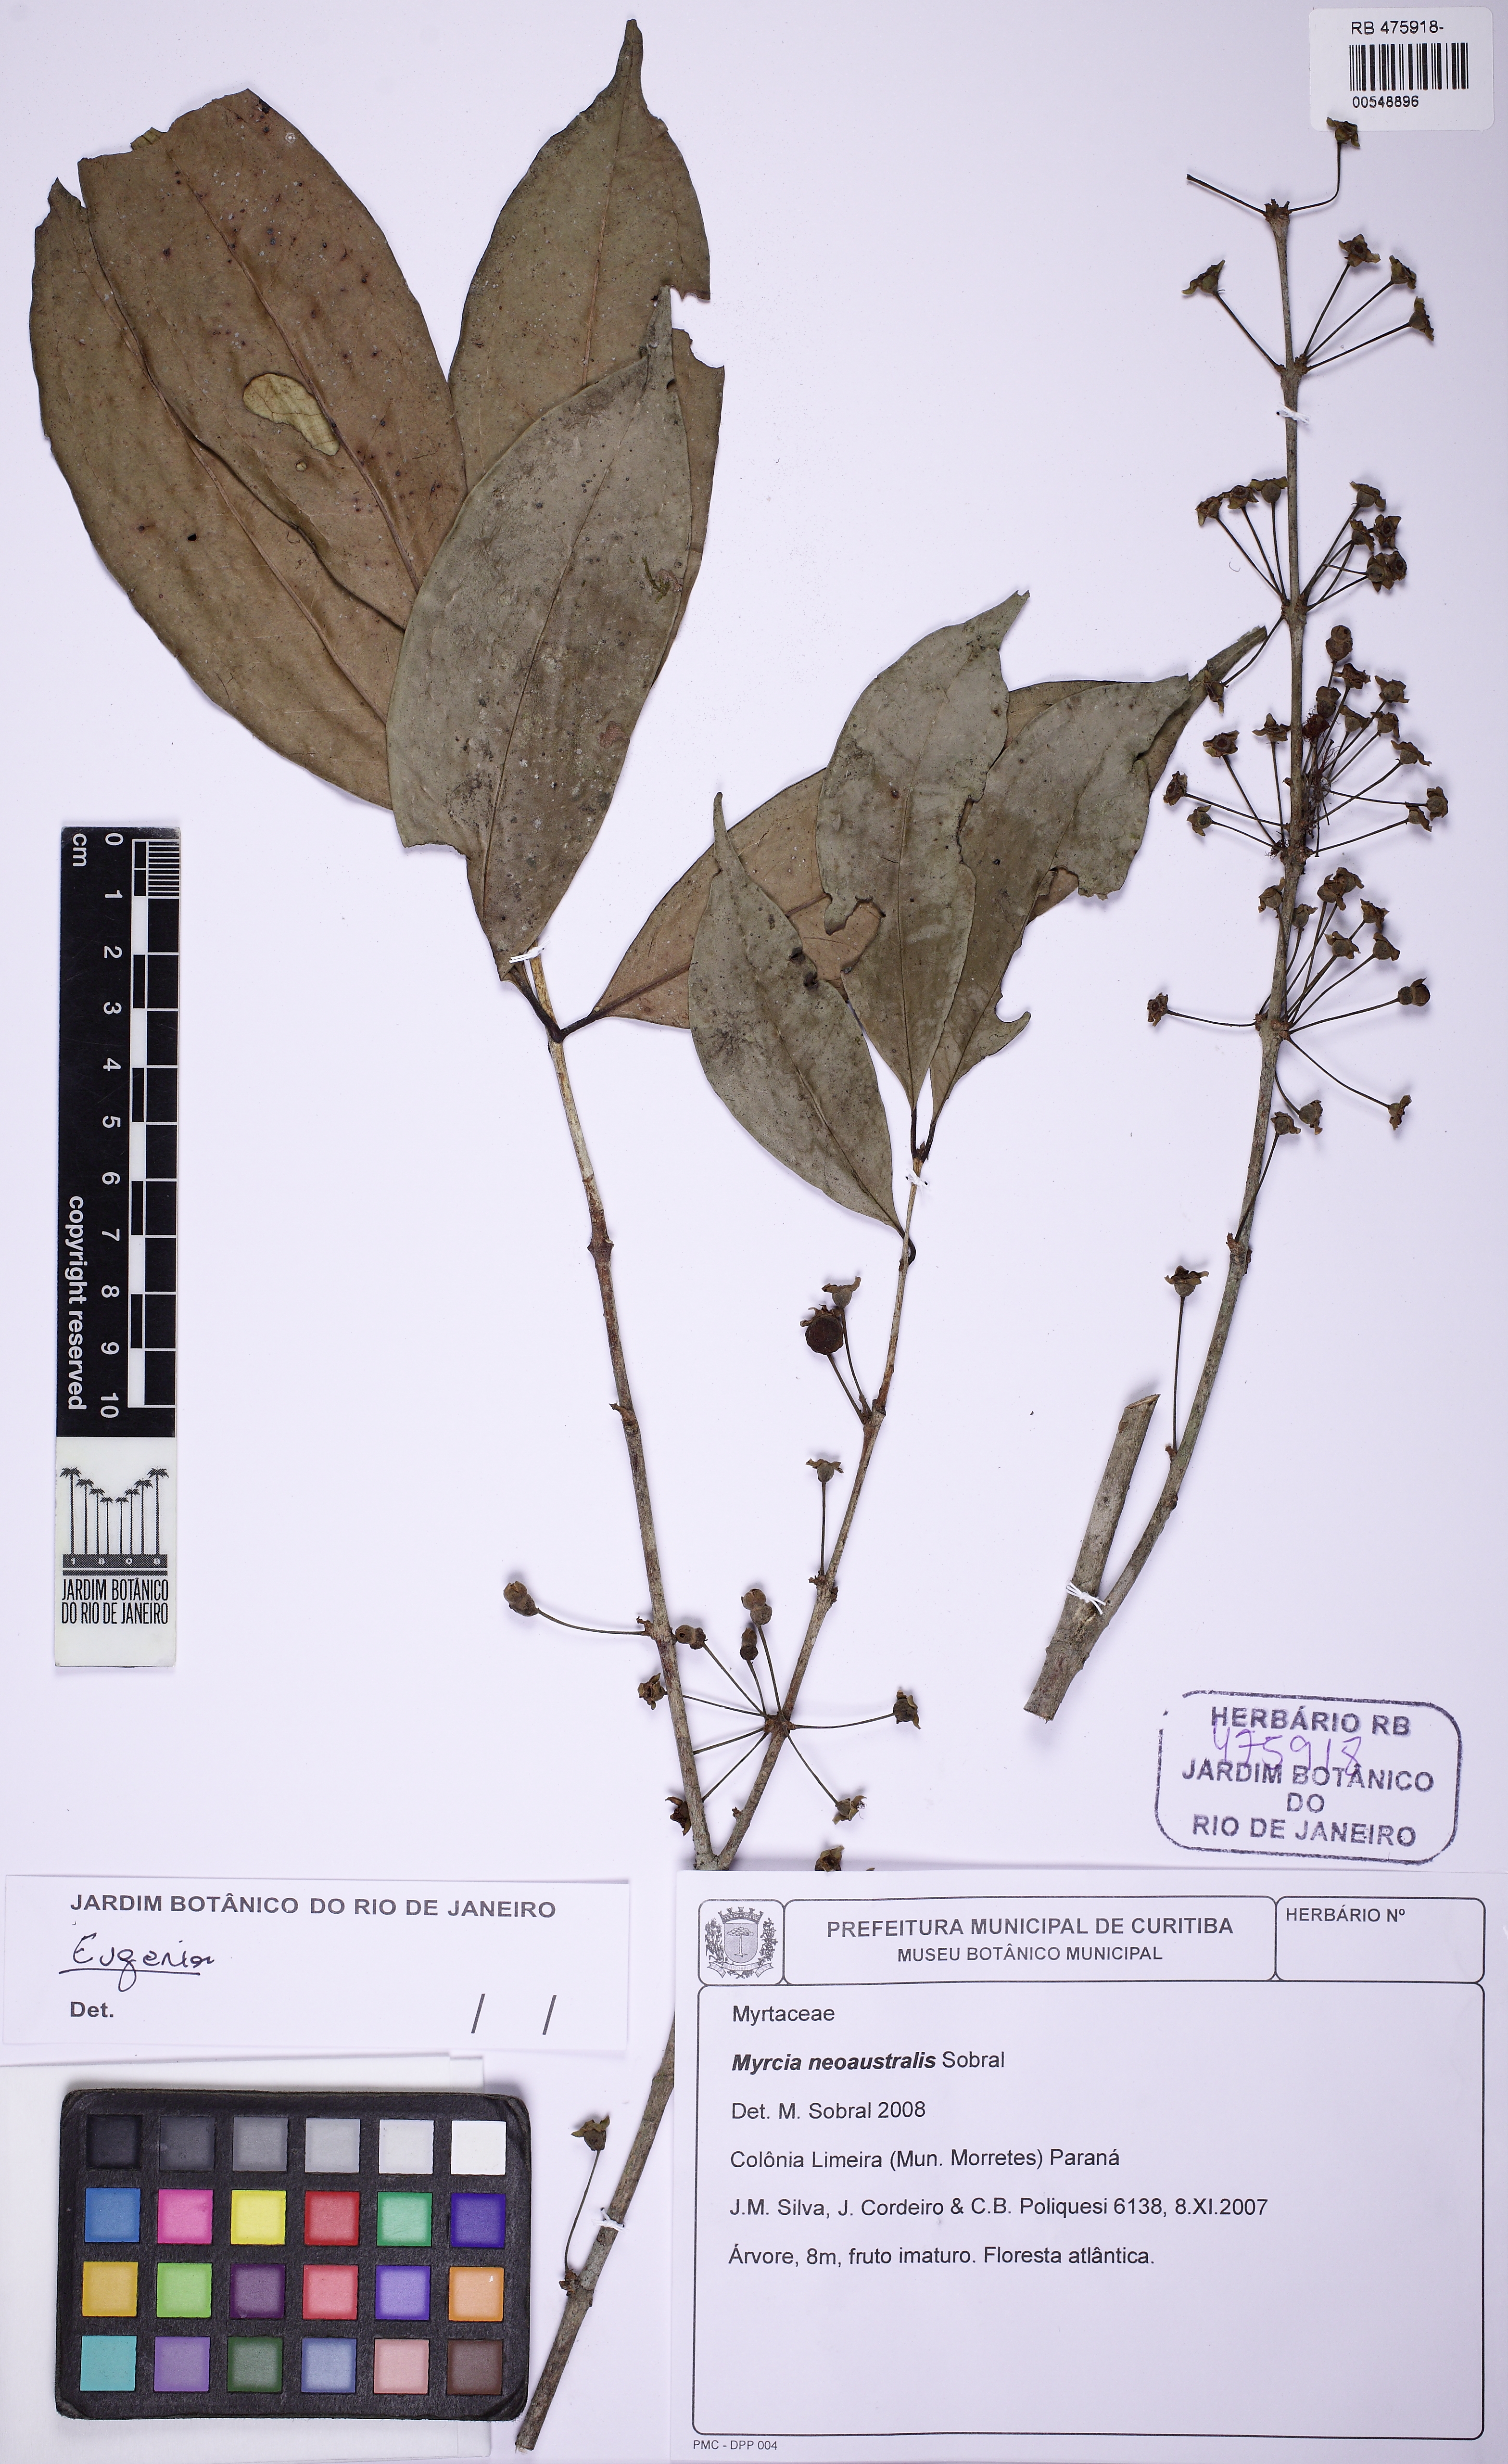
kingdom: Plantae
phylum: Tracheophyta
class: Magnoliopsida
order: Myrtales
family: Myrtaceae
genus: Eugenia
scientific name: Eugenia brevistyla
